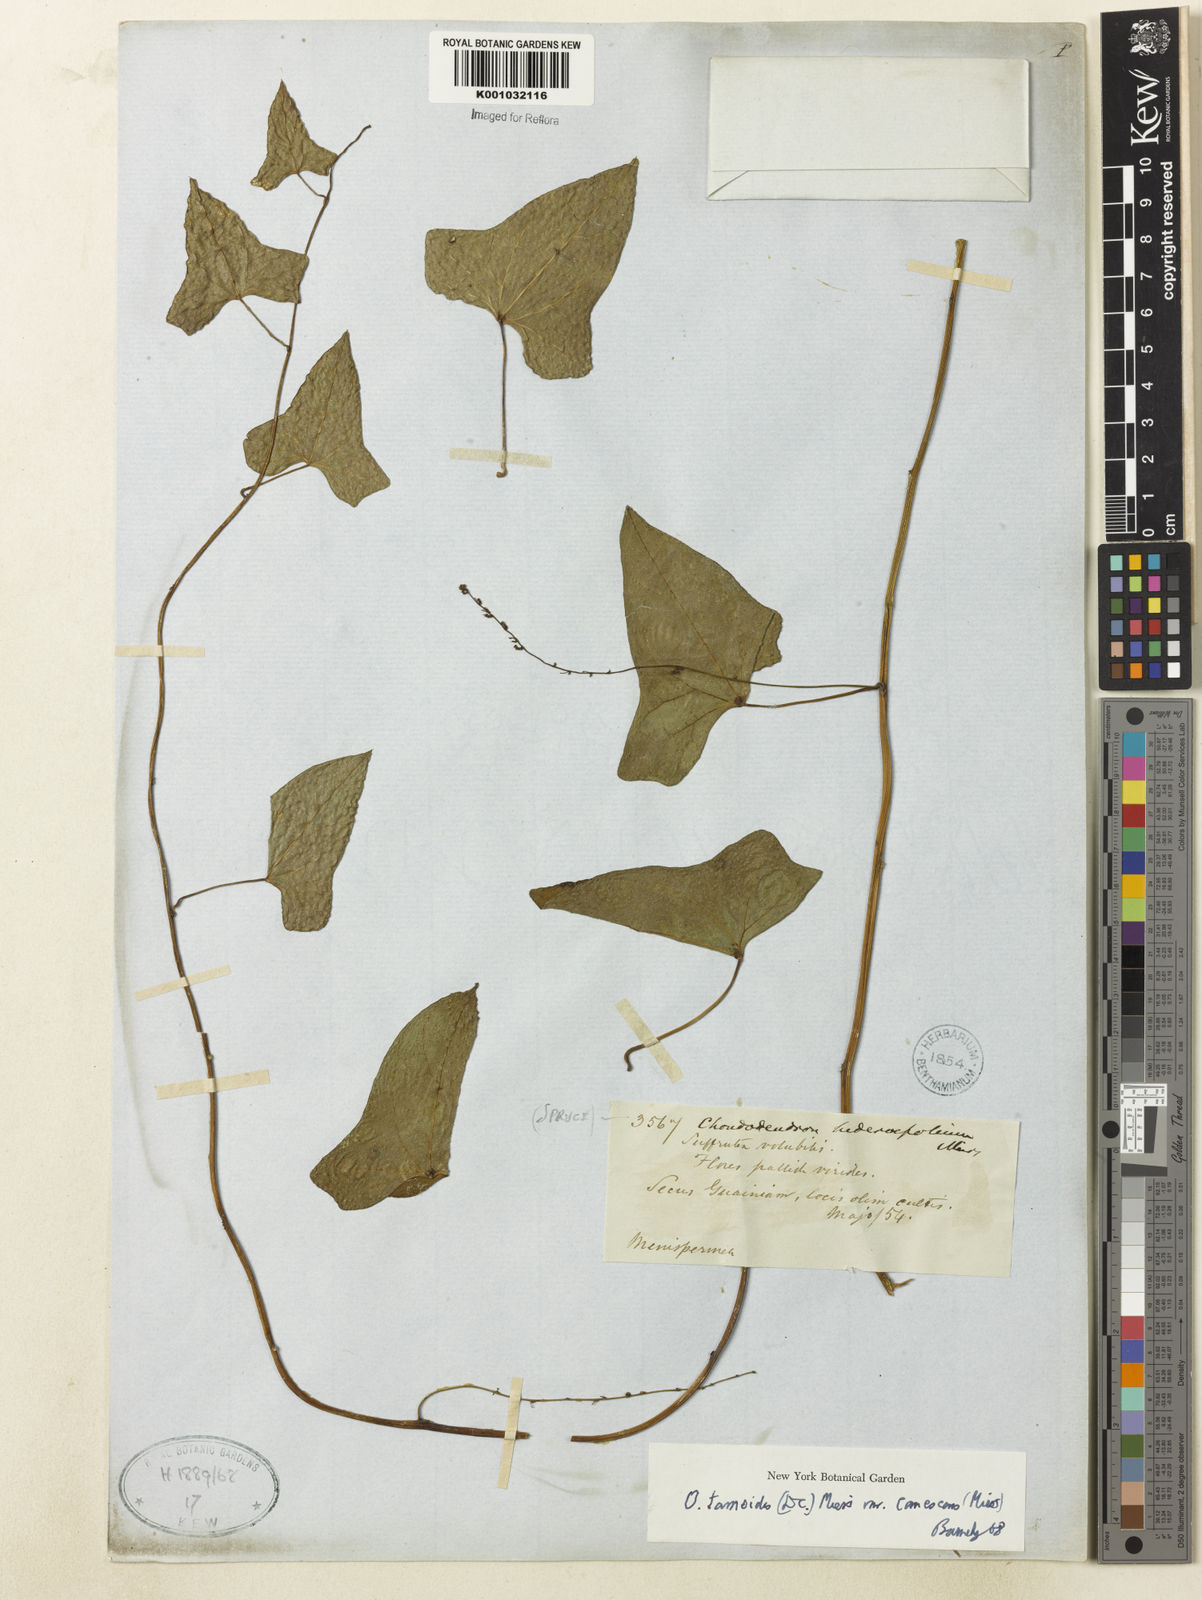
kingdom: Plantae
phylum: Tracheophyta
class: Magnoliopsida
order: Ranunculales
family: Menispermaceae
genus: Odontocarya
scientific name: Odontocarya tamoides
